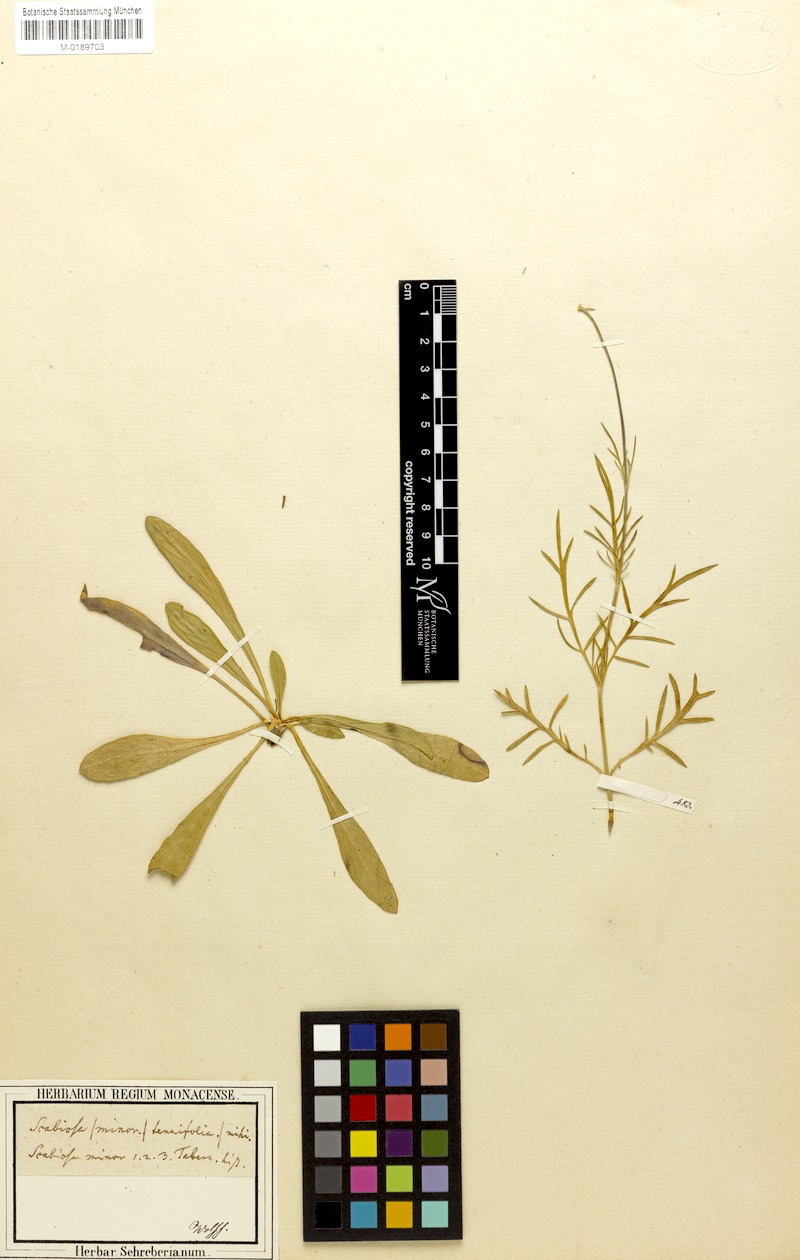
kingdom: Plantae
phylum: Tracheophyta
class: Magnoliopsida
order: Dipsacales
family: Caprifoliaceae
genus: Scabiosa
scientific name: Scabiosa canescens
